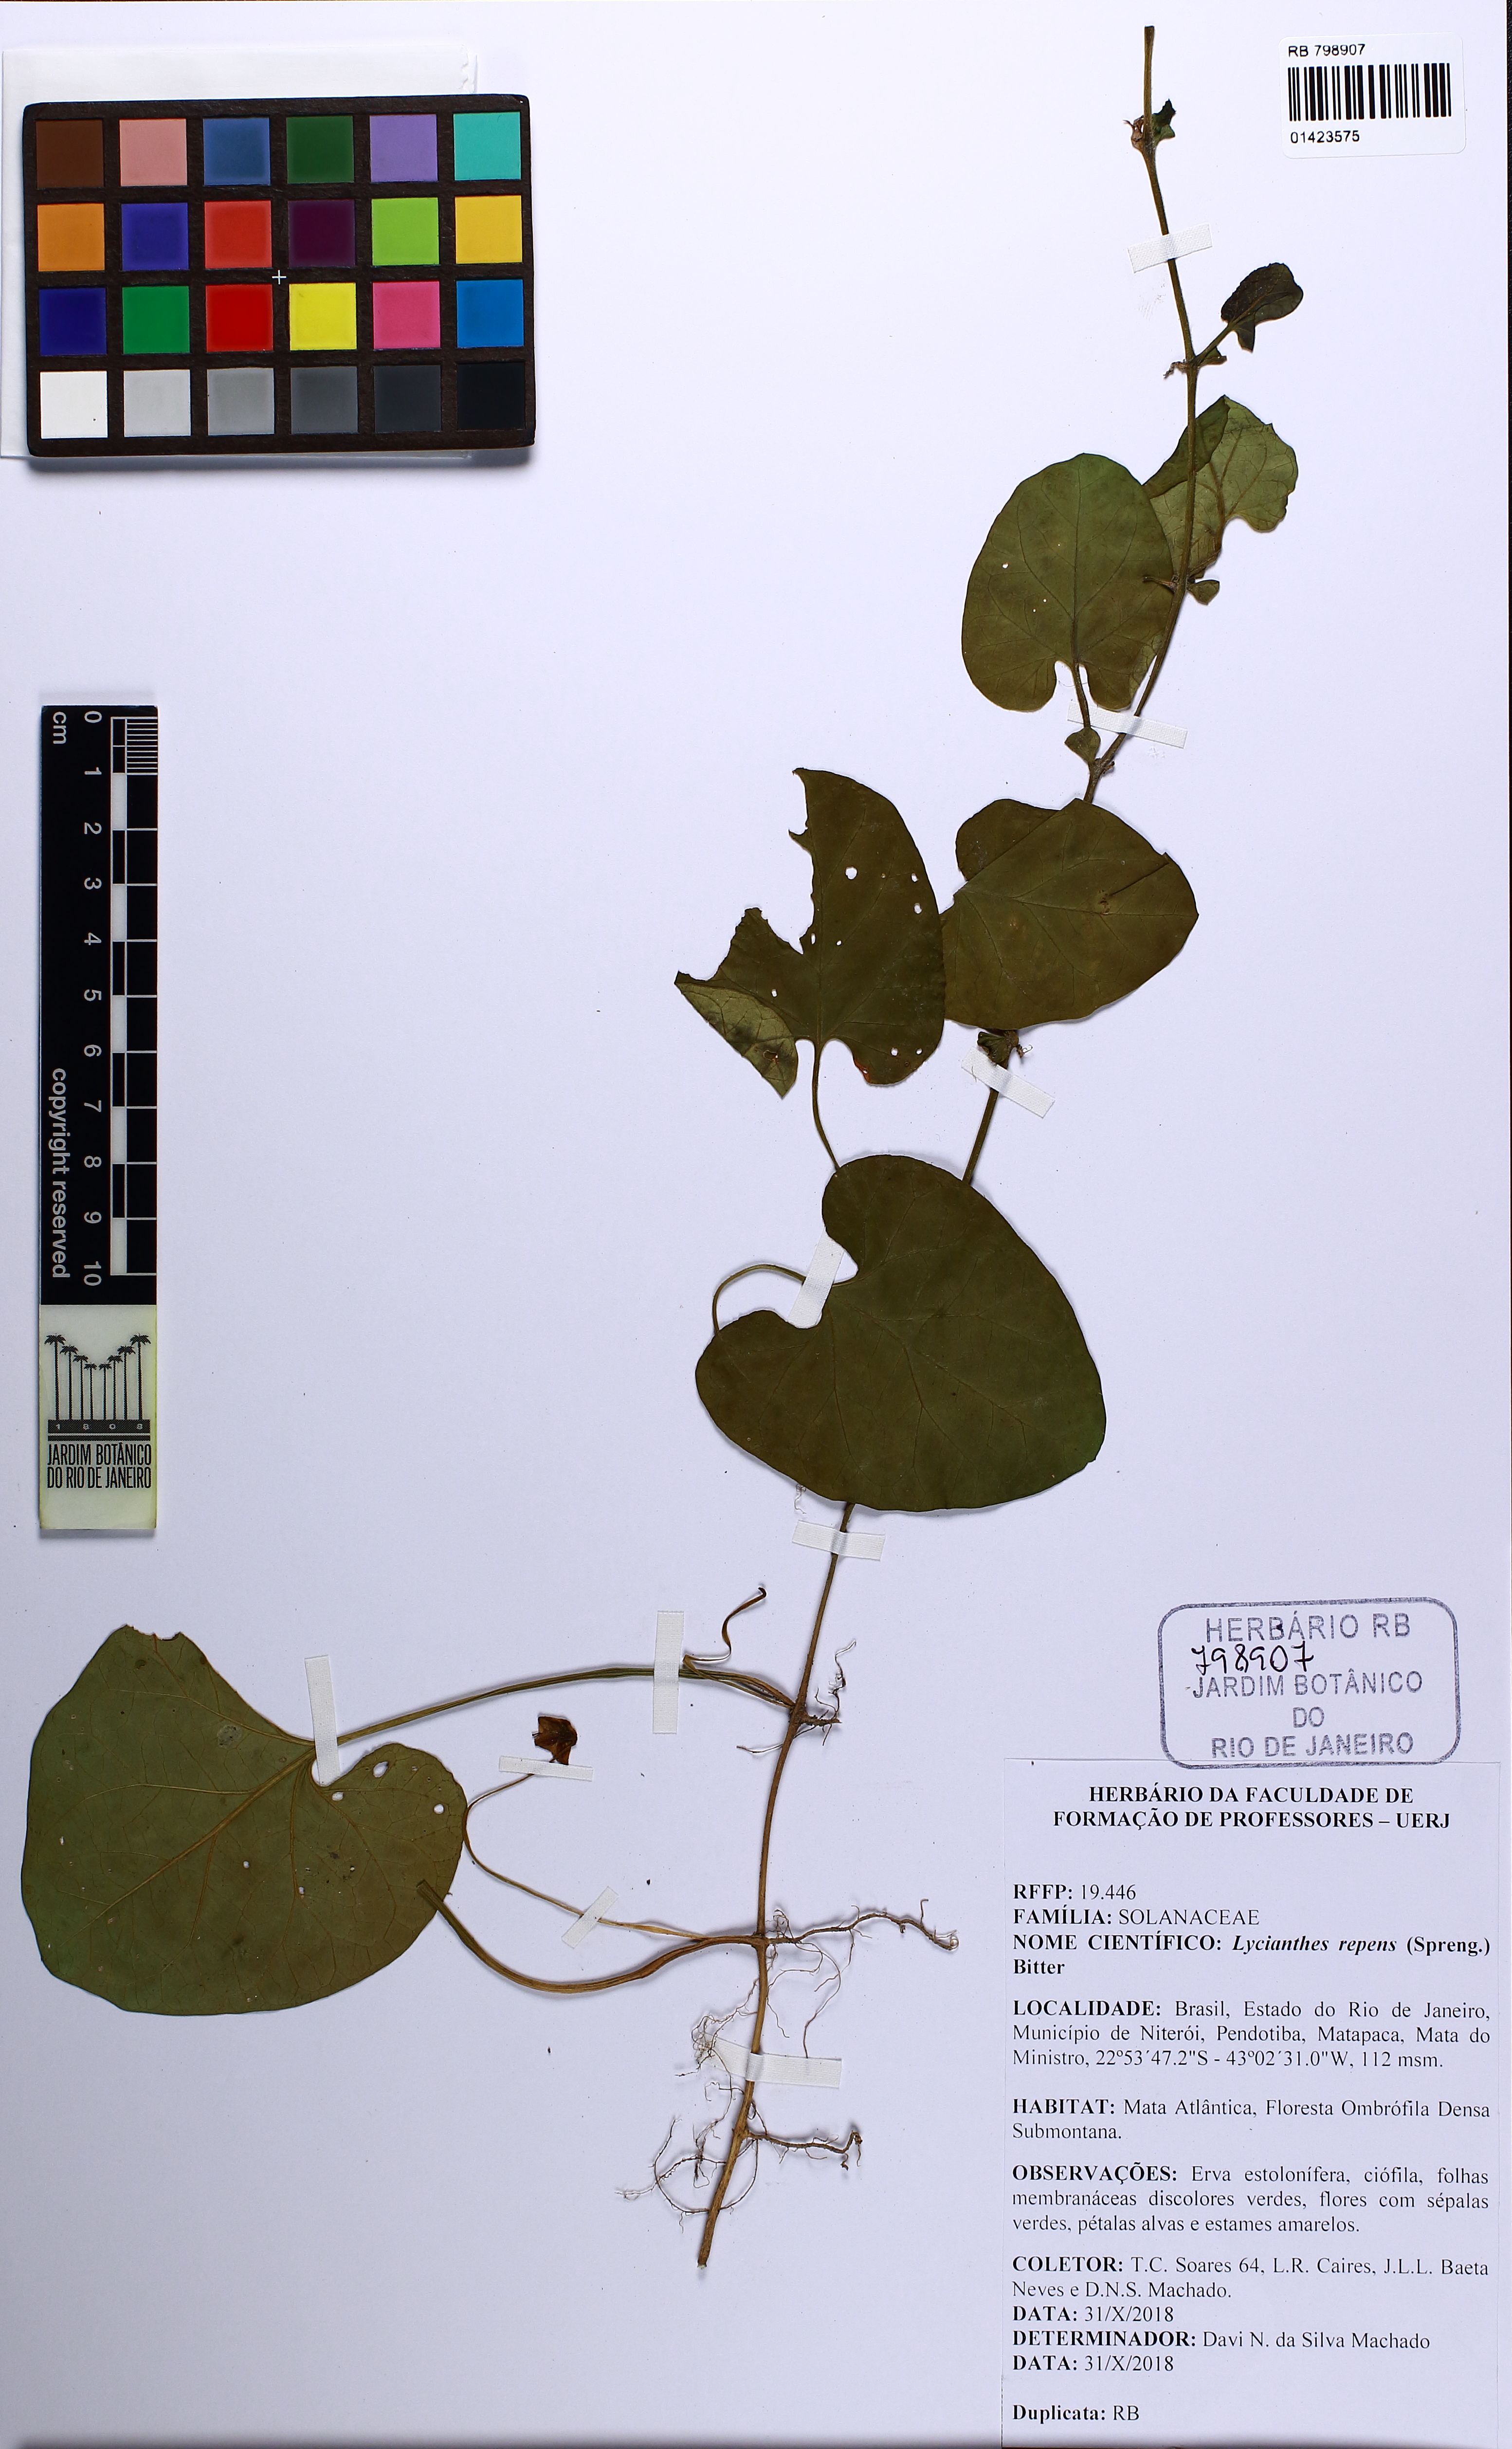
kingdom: Plantae
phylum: Tracheophyta
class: Magnoliopsida
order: Solanales
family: Solanaceae
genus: Lycianthes
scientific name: Lycianthes repens
